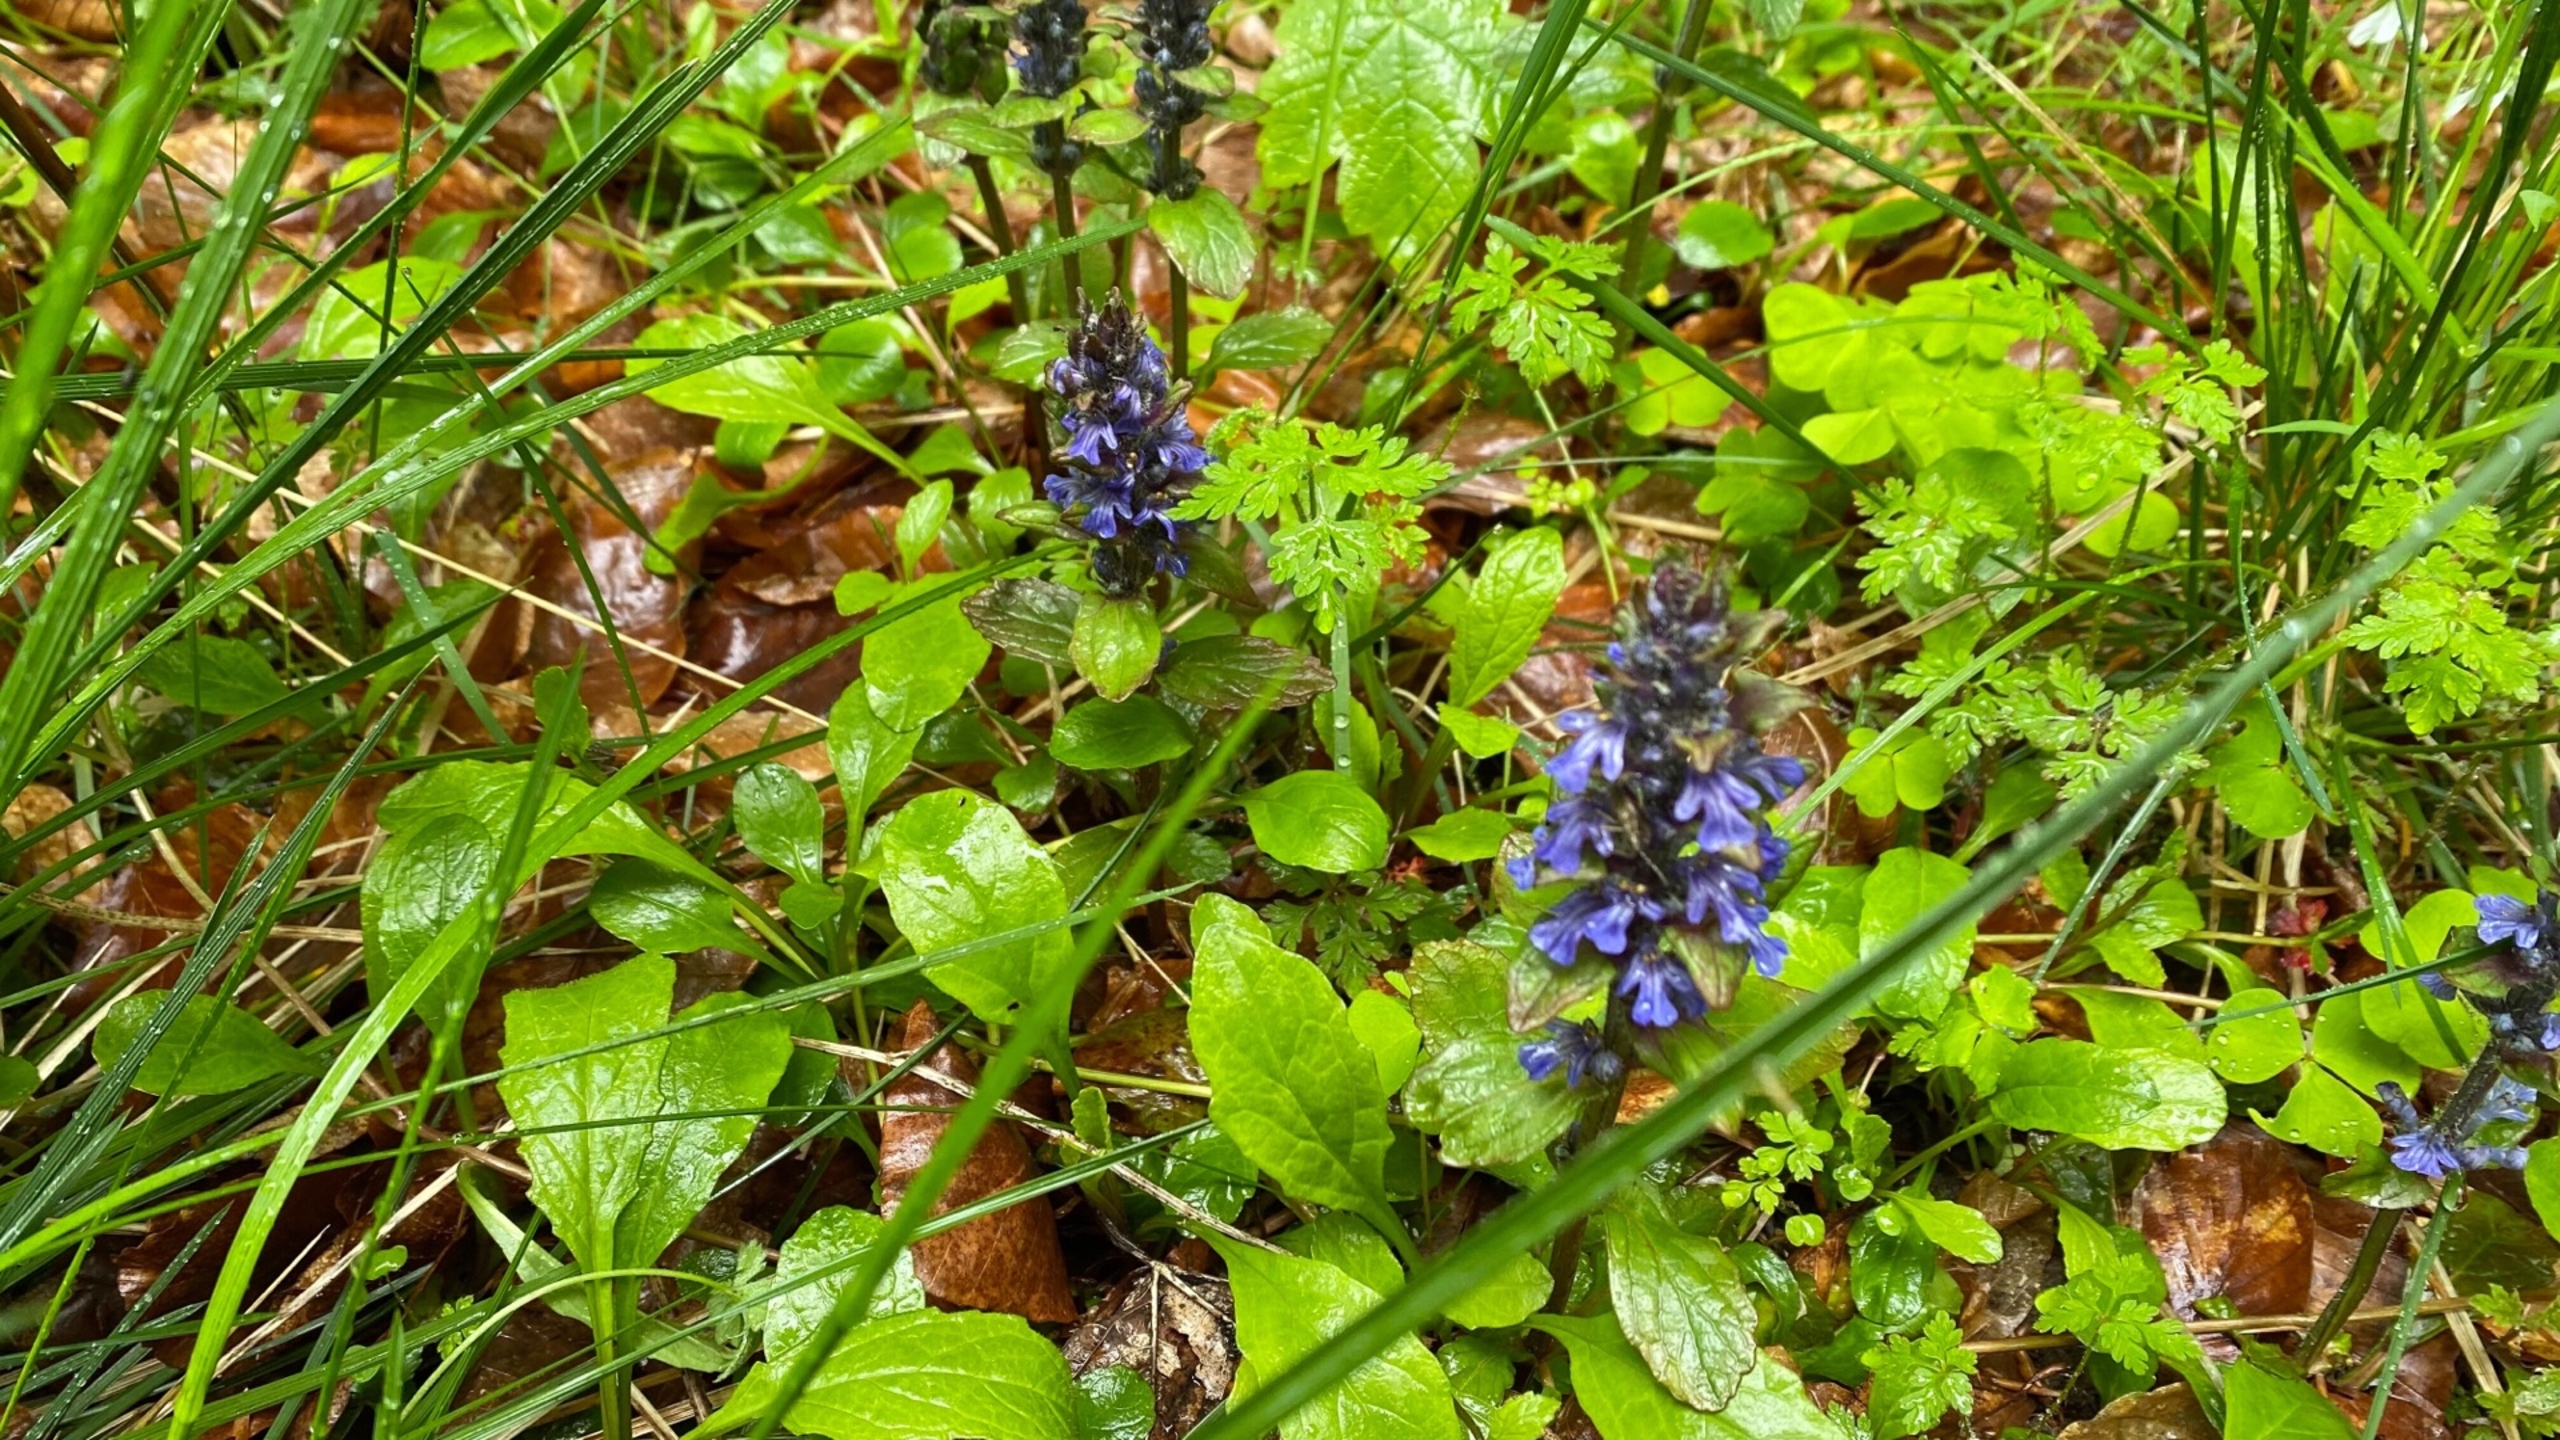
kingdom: Plantae
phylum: Tracheophyta
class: Magnoliopsida
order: Lamiales
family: Lamiaceae
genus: Ajuga
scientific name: Ajuga reptans
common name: Krybende læbeløs
